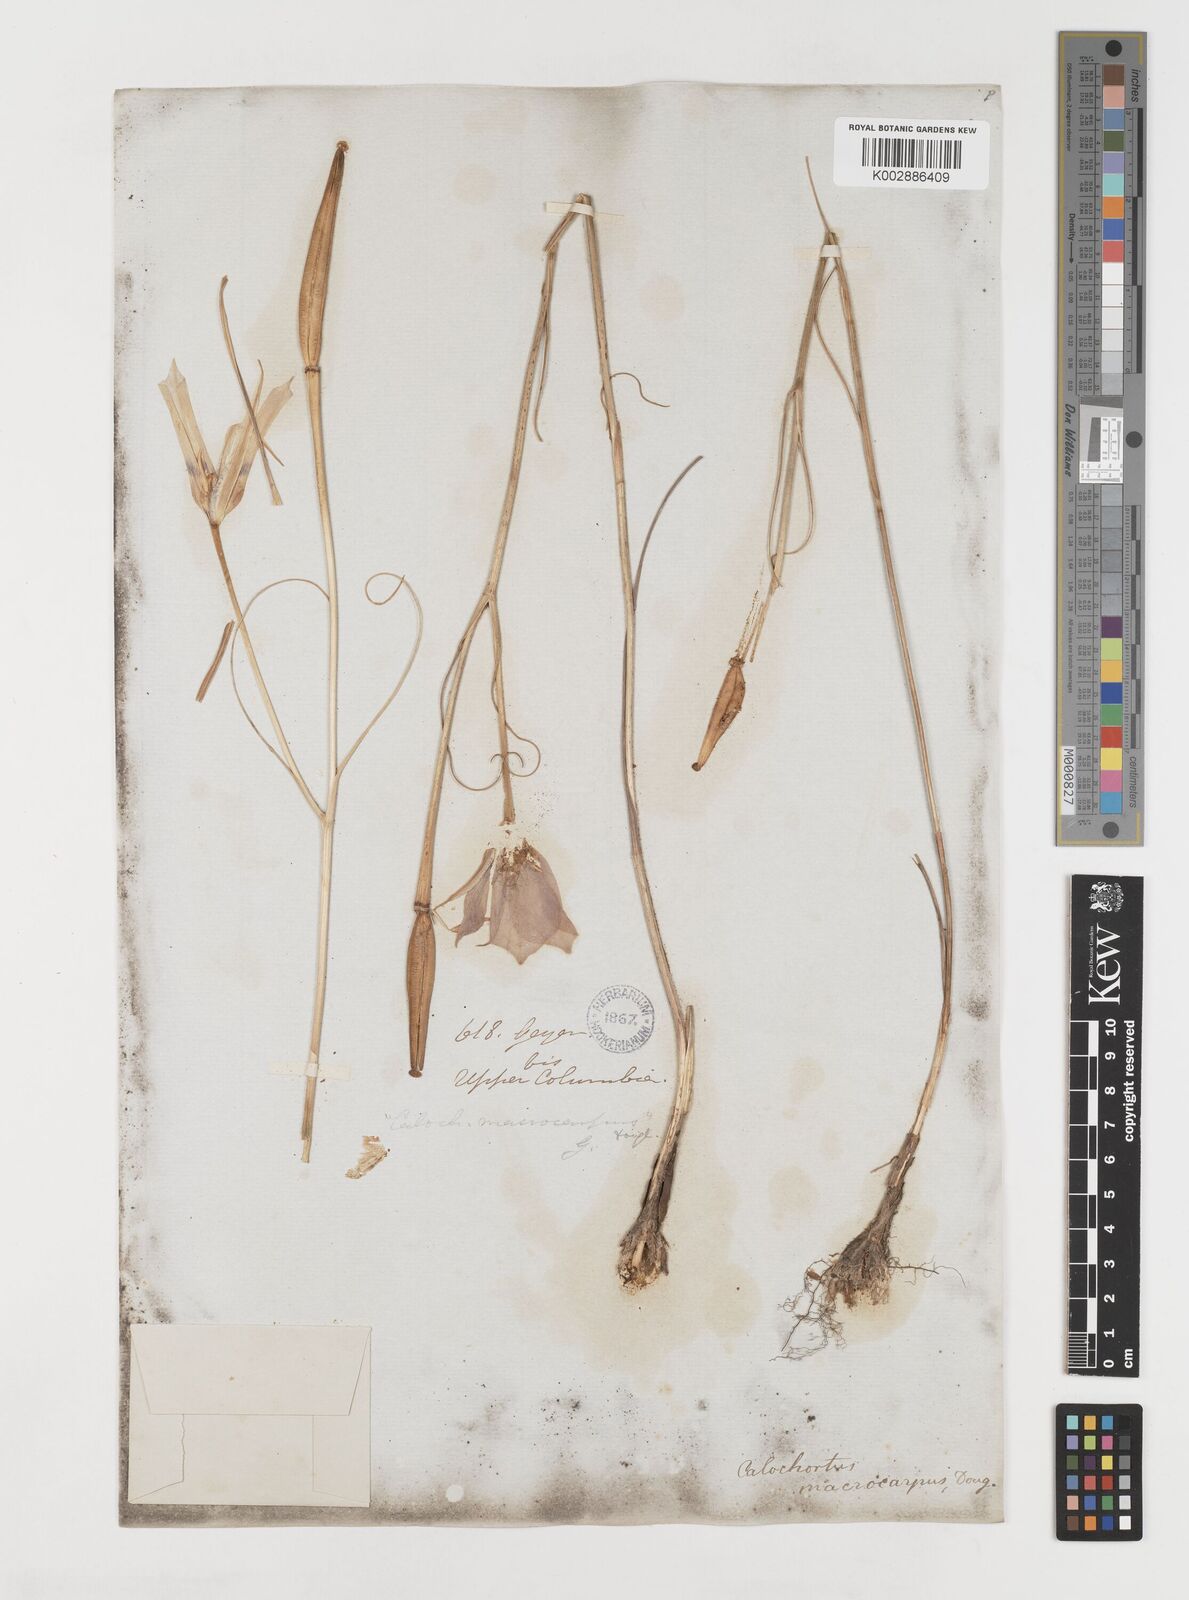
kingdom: Plantae
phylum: Tracheophyta
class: Liliopsida
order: Liliales
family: Liliaceae
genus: Calochortus
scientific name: Calochortus macrocarpus
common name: Green-band mariposa lily
